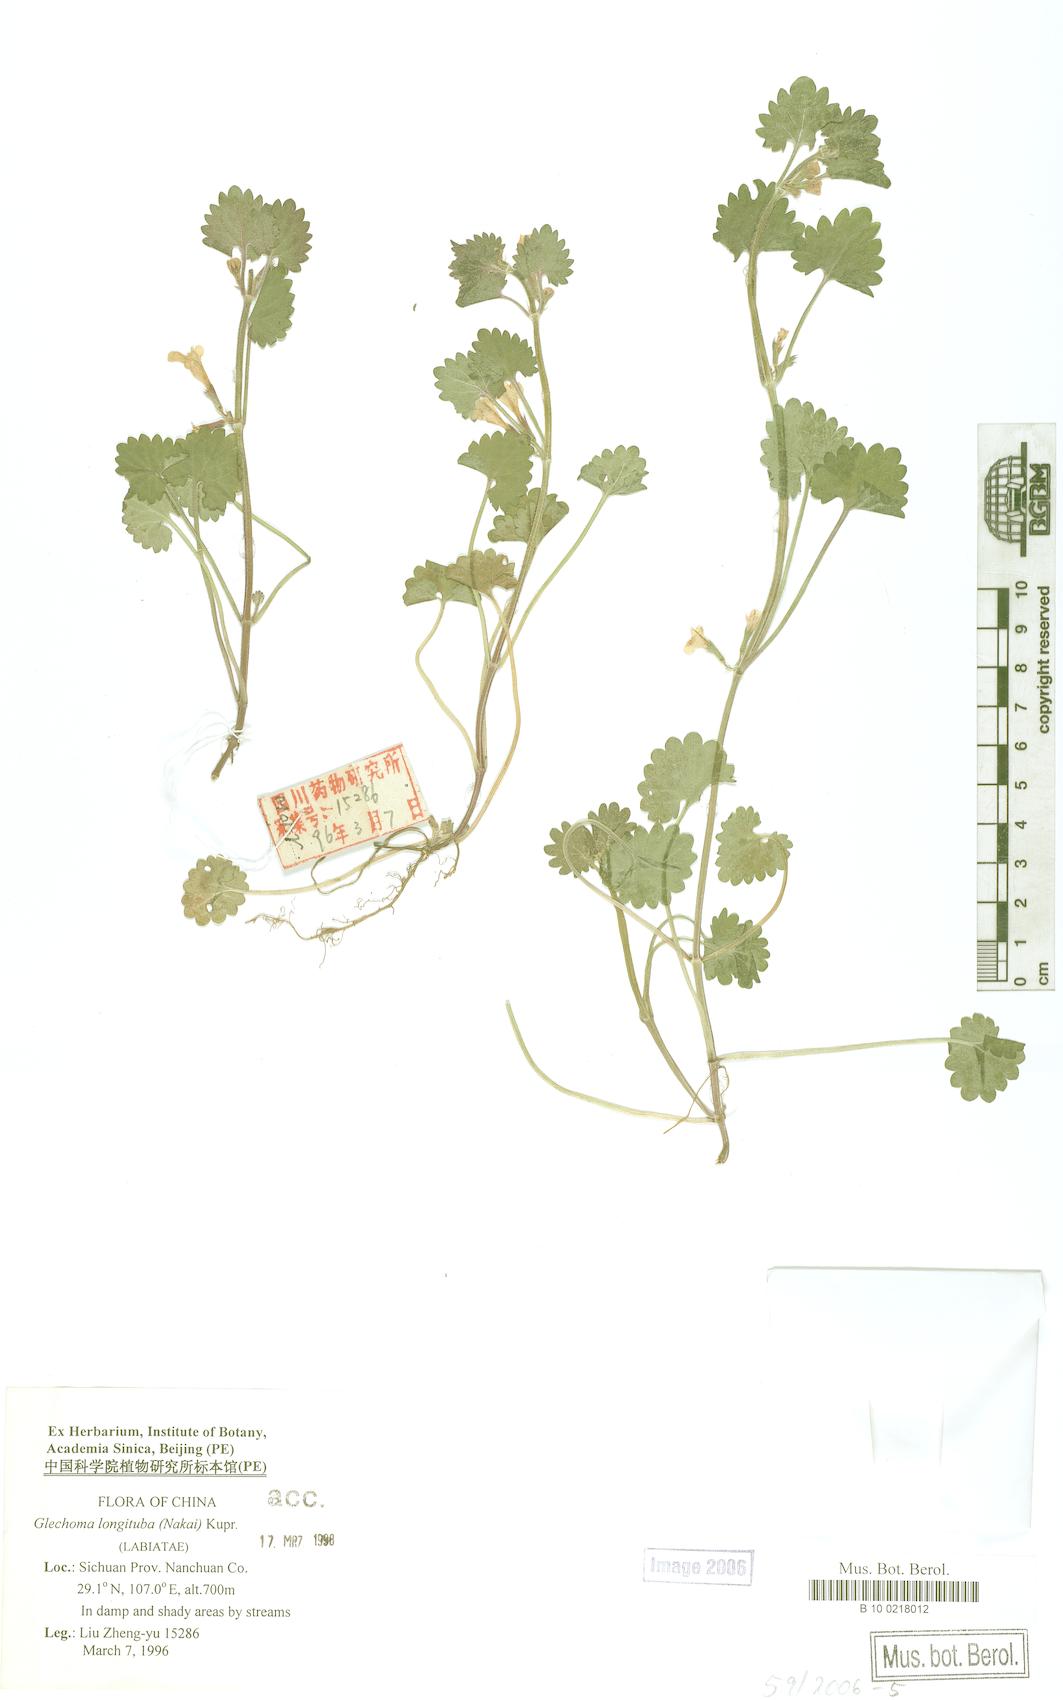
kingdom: Plantae
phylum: Tracheophyta
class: Magnoliopsida
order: Lamiales
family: Lamiaceae
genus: Glechoma
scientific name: Glechoma longituba
